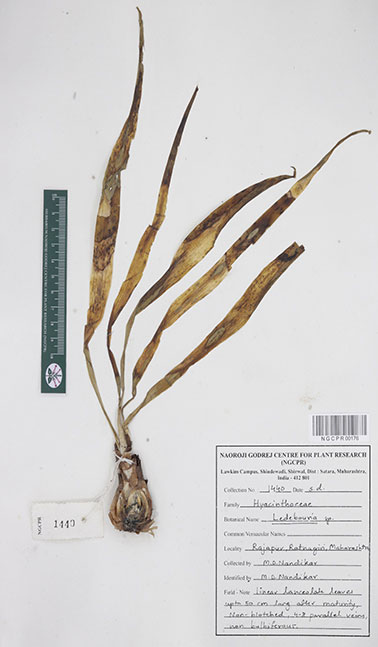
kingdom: Plantae
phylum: Tracheophyta
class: Liliopsida
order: Asparagales
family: Asparagaceae
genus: Ledebouria
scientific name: Ledebouria
